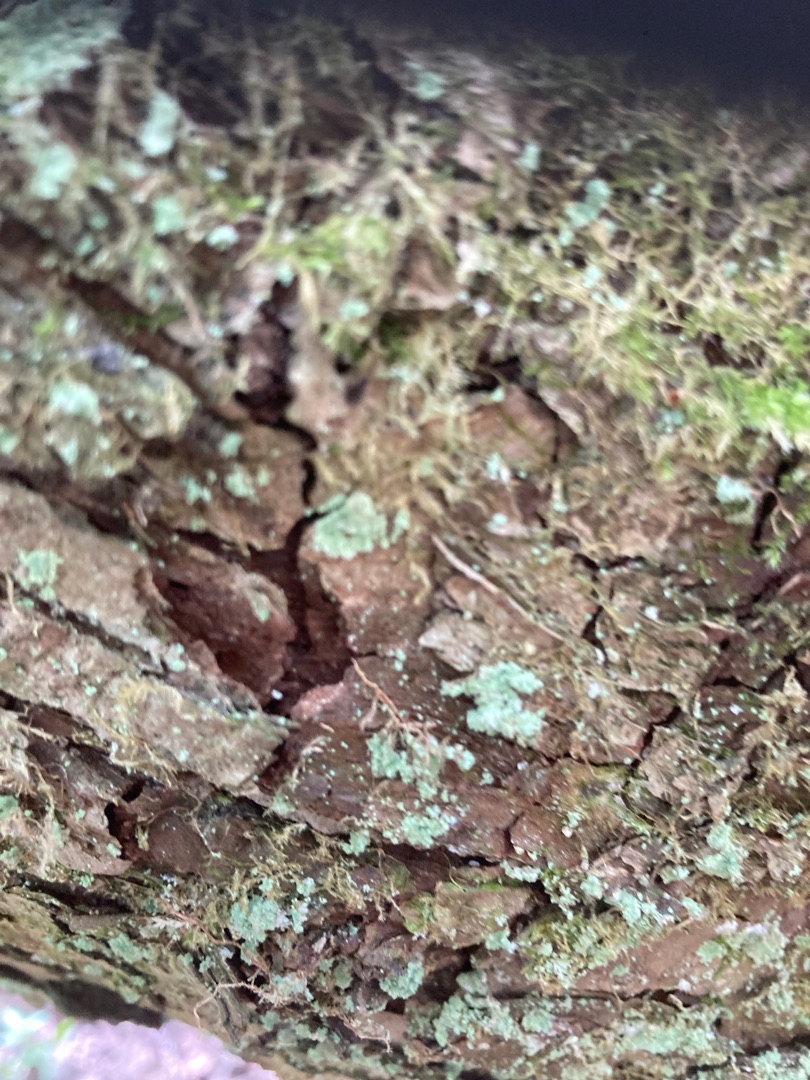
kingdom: Fungi
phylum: Ascomycota
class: Lecanoromycetes
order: Lecanorales
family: Stereocaulaceae
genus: Lepraria
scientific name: Lepraria incana
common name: Almindelig støvlav
